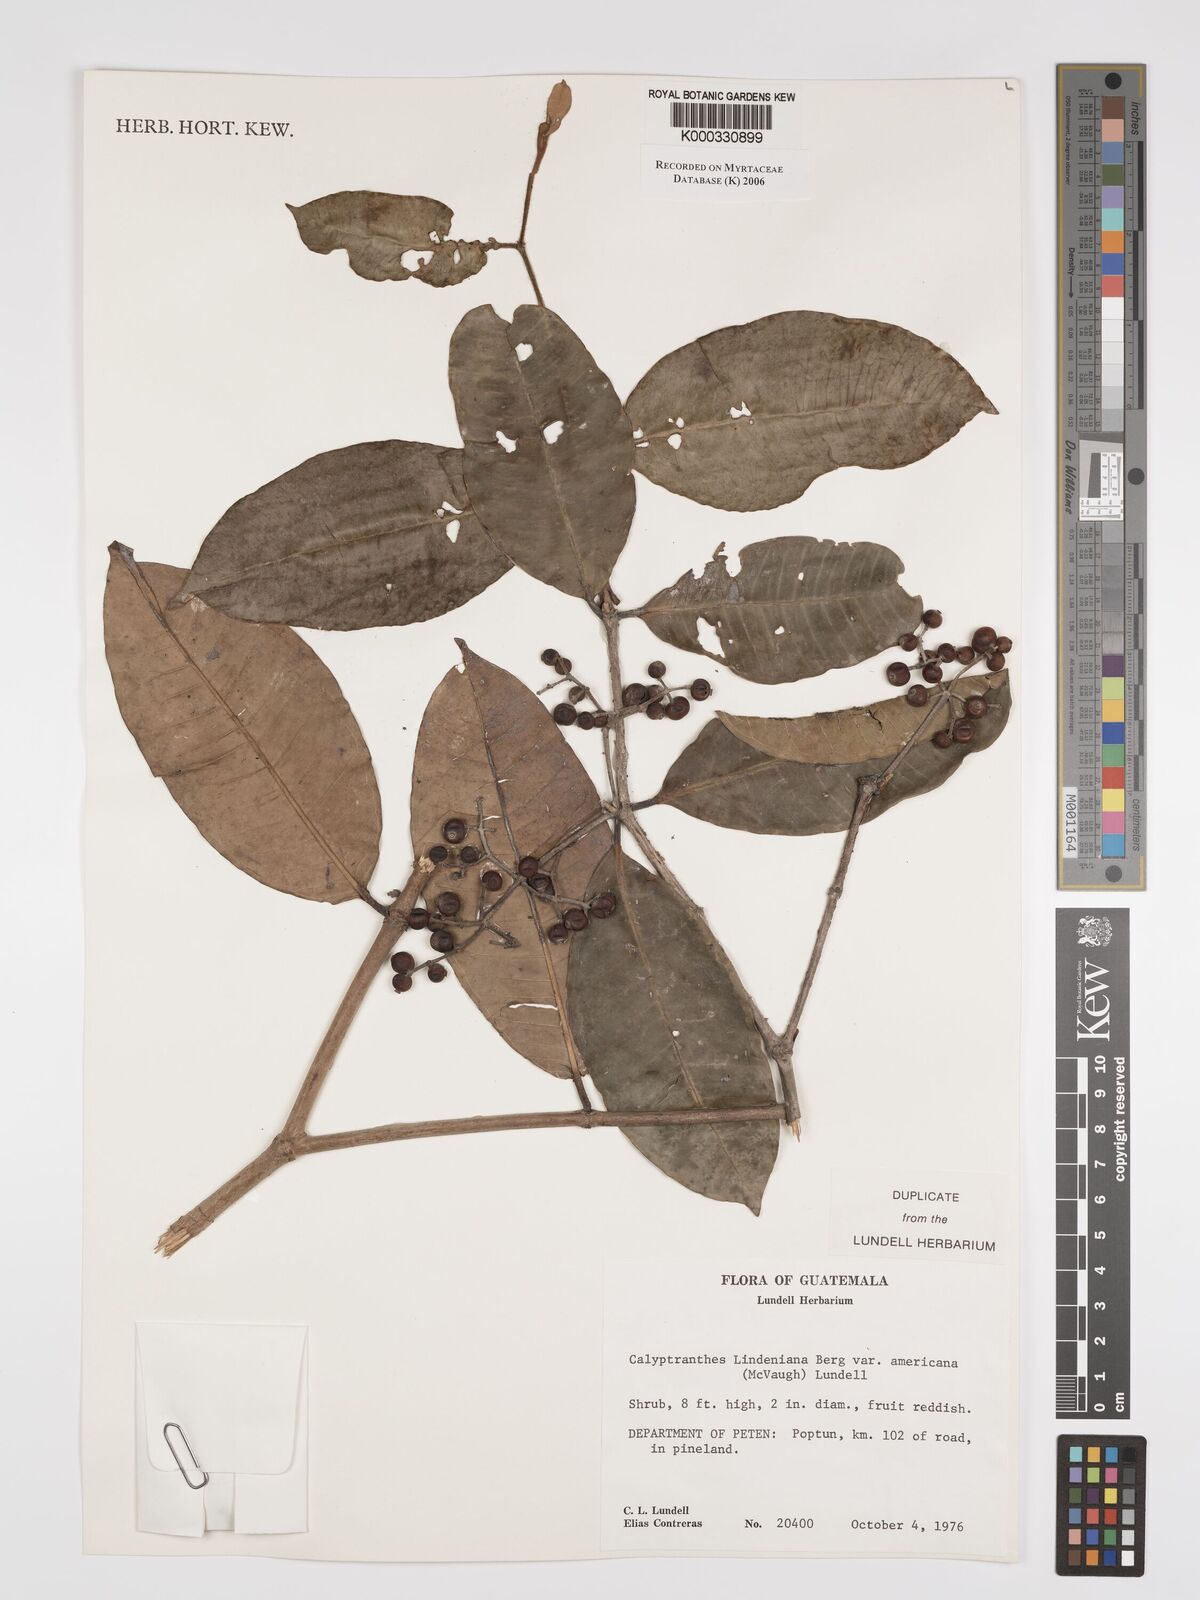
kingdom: Plantae
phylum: Tracheophyta
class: Magnoliopsida
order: Myrtales
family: Myrtaceae
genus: Myrcia
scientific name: Myrcia chytraculia
